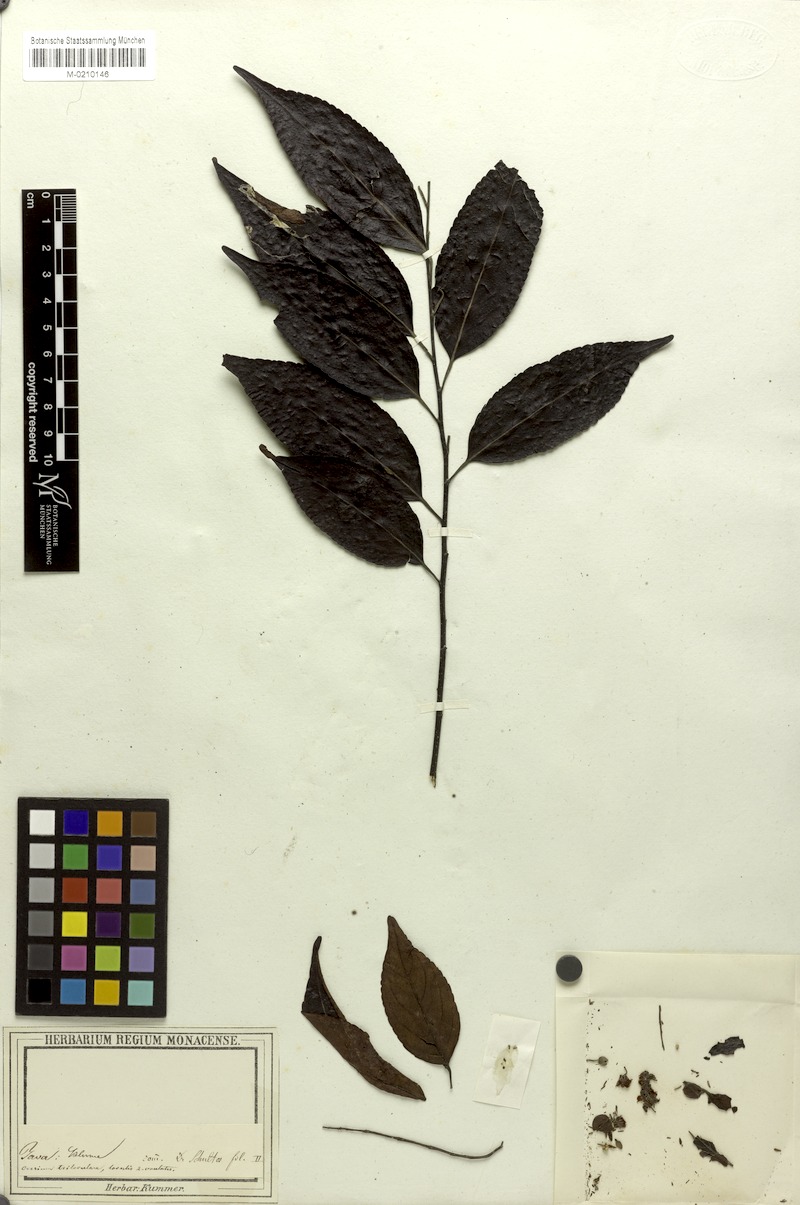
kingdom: Plantae
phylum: Tracheophyta
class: Magnoliopsida
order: Oxalidales
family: Elaeocarpaceae
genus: Elaeocarpus
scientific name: Elaeocarpus
